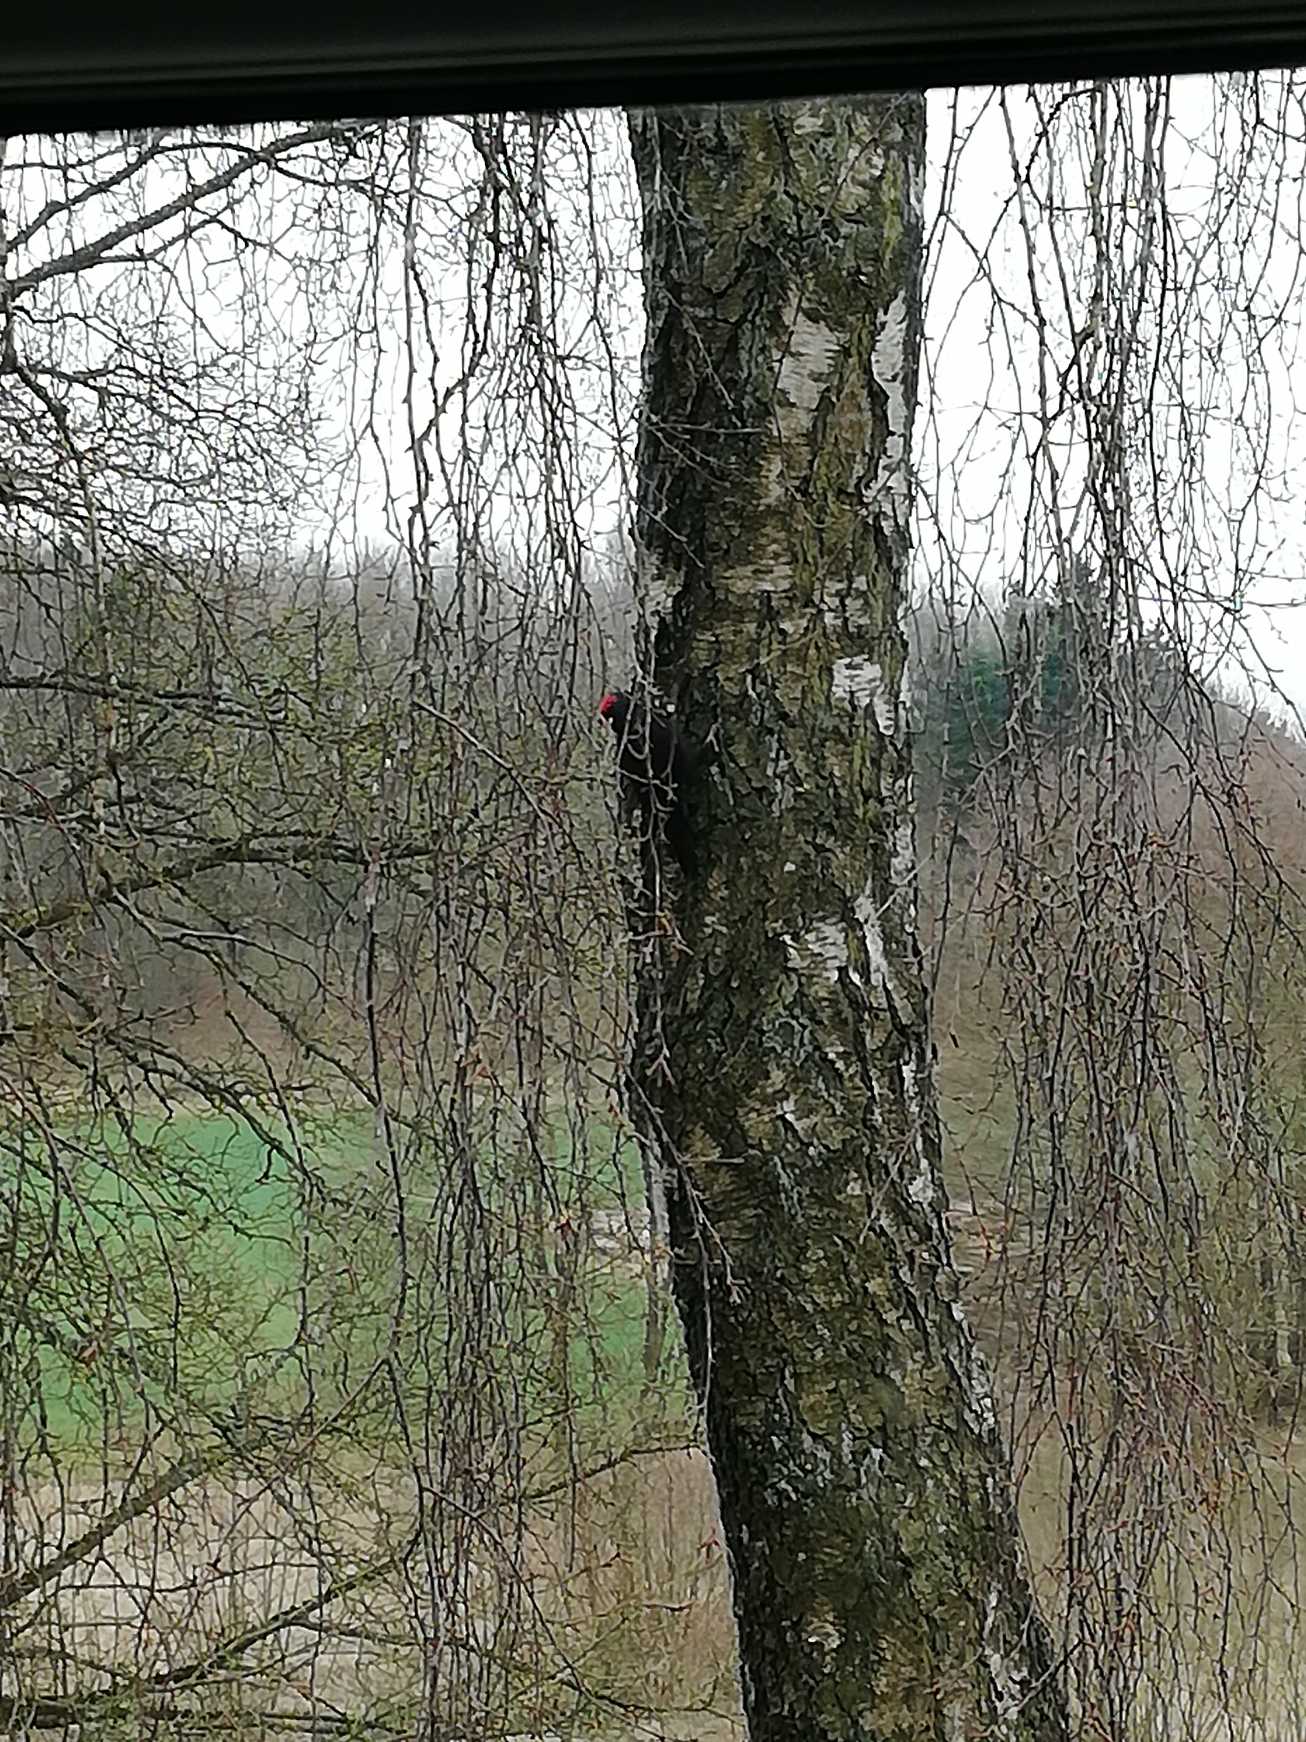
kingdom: Animalia
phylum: Chordata
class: Aves
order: Piciformes
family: Picidae
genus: Dryocopus
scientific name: Dryocopus martius
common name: Sortspætte
